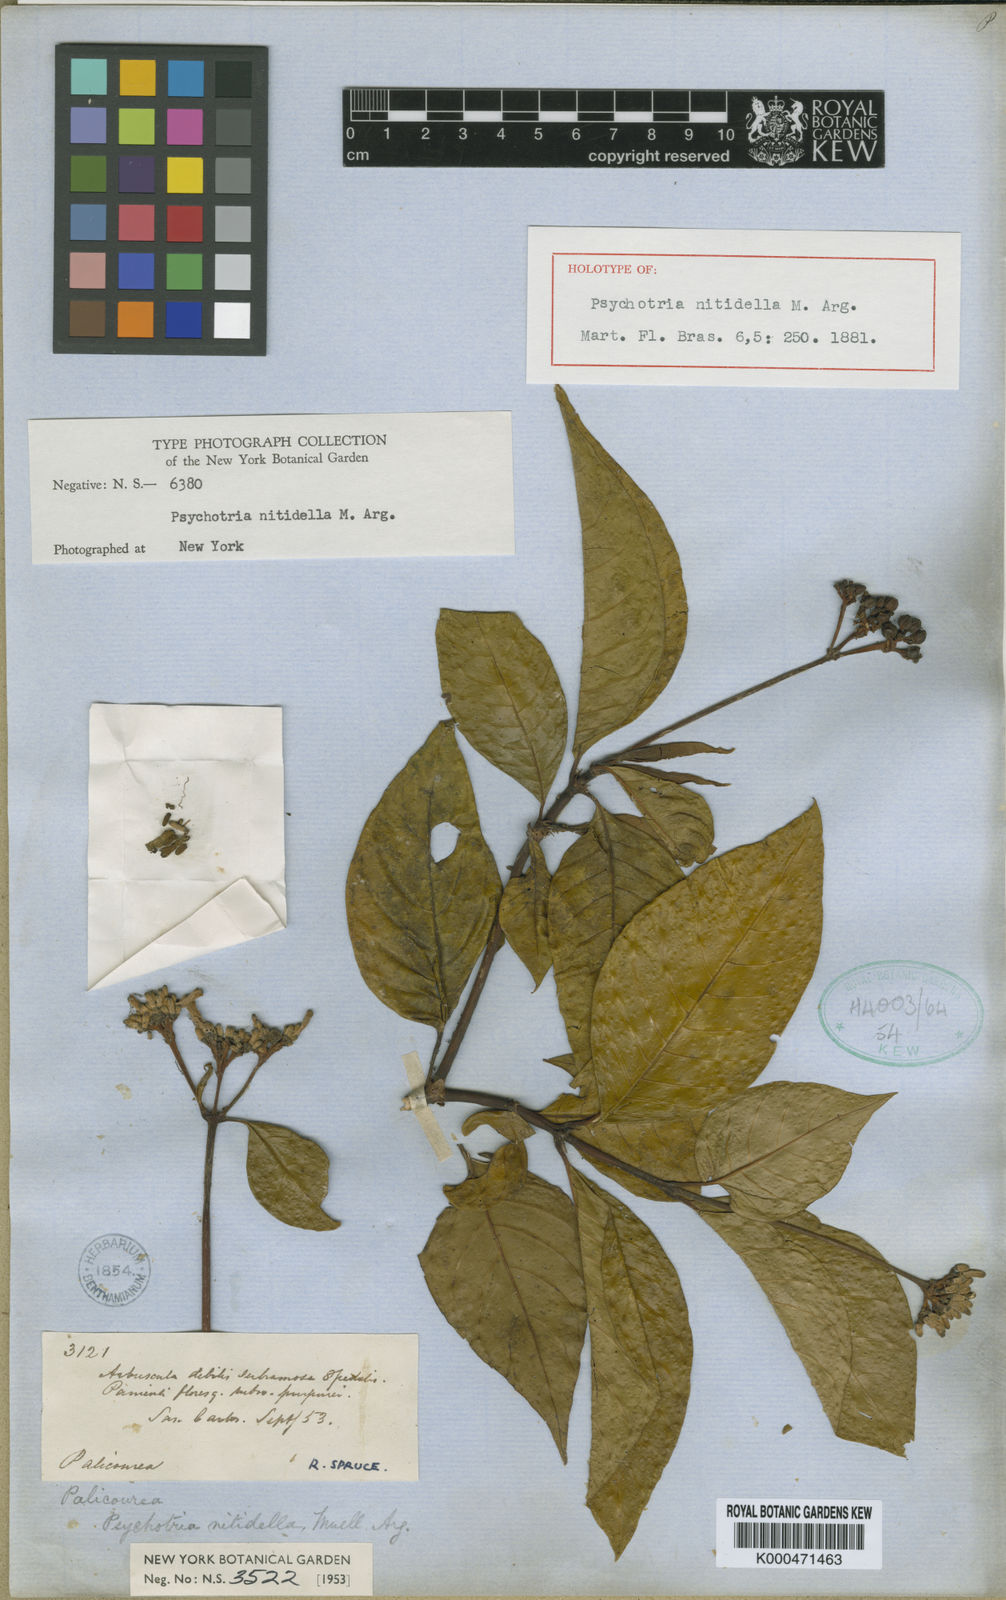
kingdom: Plantae
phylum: Tracheophyta
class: Magnoliopsida
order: Gentianales
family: Rubiaceae
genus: Palicourea
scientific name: Palicourea
